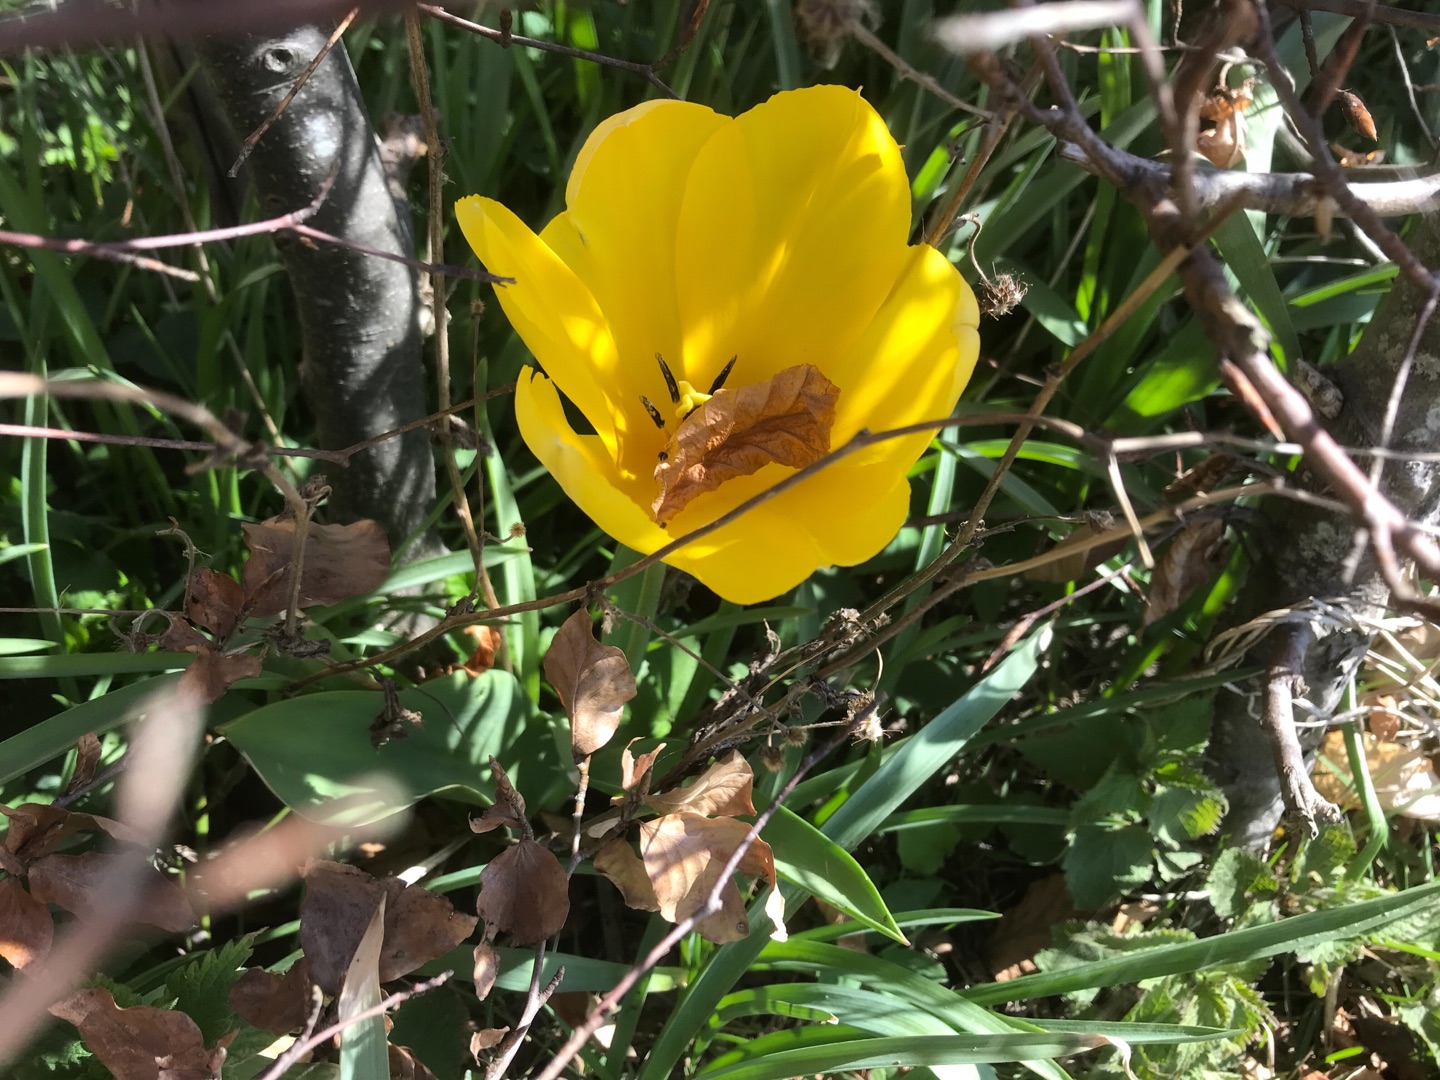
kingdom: Plantae
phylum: Tracheophyta
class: Liliopsida
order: Liliales
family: Liliaceae
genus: Tulipa
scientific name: Tulipa gesneriana
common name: Have-tulipan
